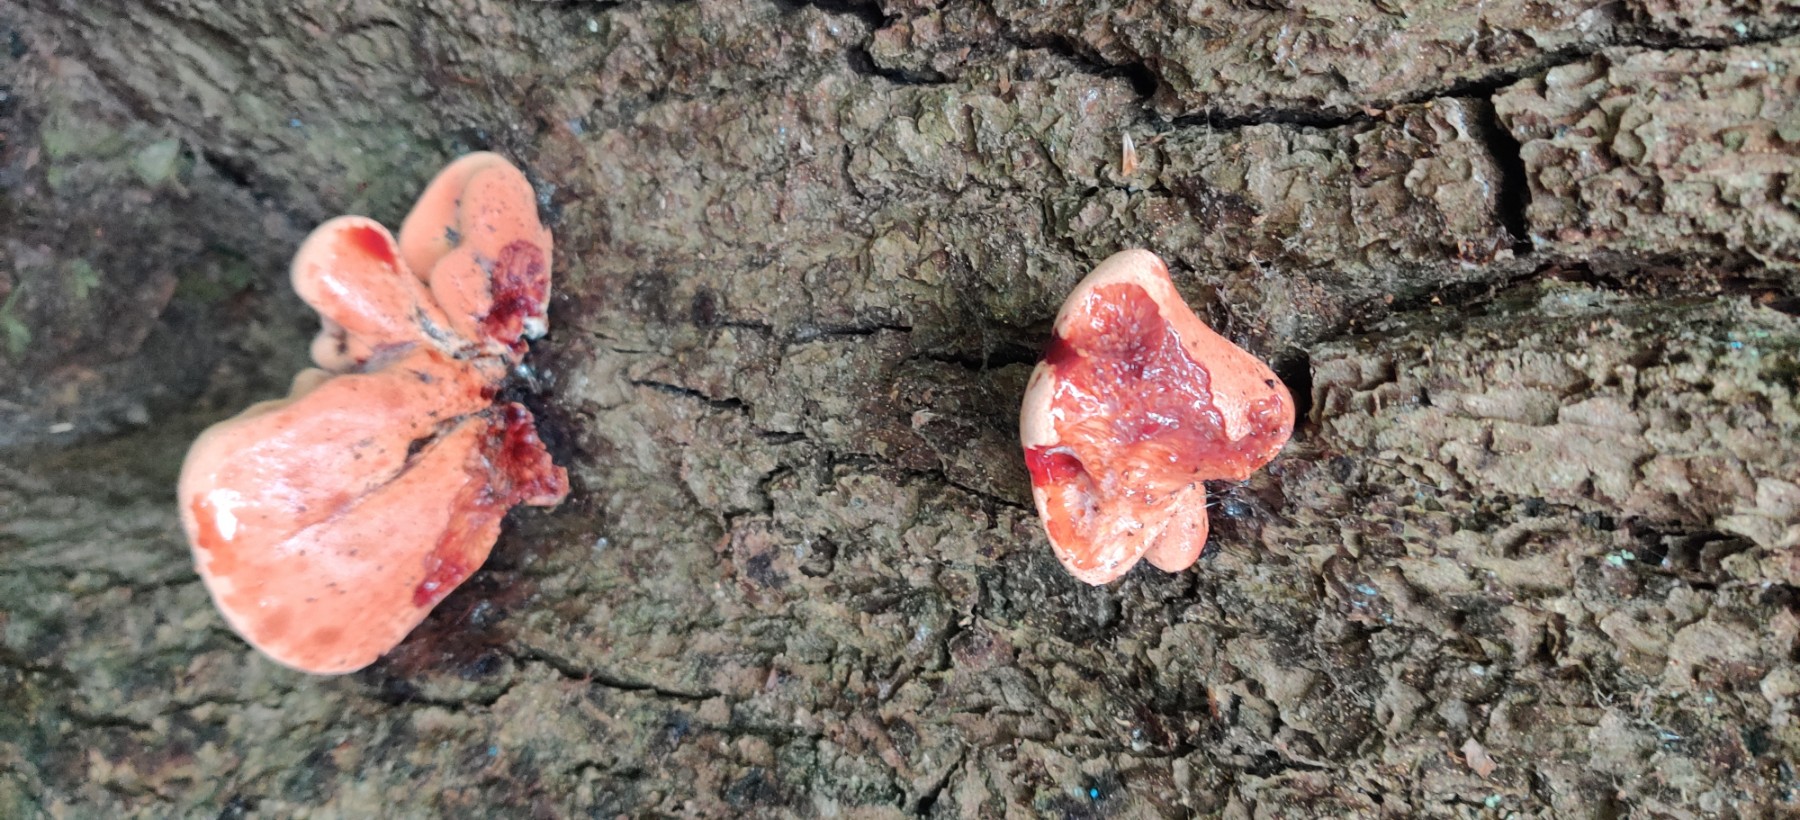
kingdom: Fungi
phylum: Basidiomycota
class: Agaricomycetes
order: Agaricales
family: Fistulinaceae
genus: Fistulina
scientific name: Fistulina hepatica
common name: oksetunge
